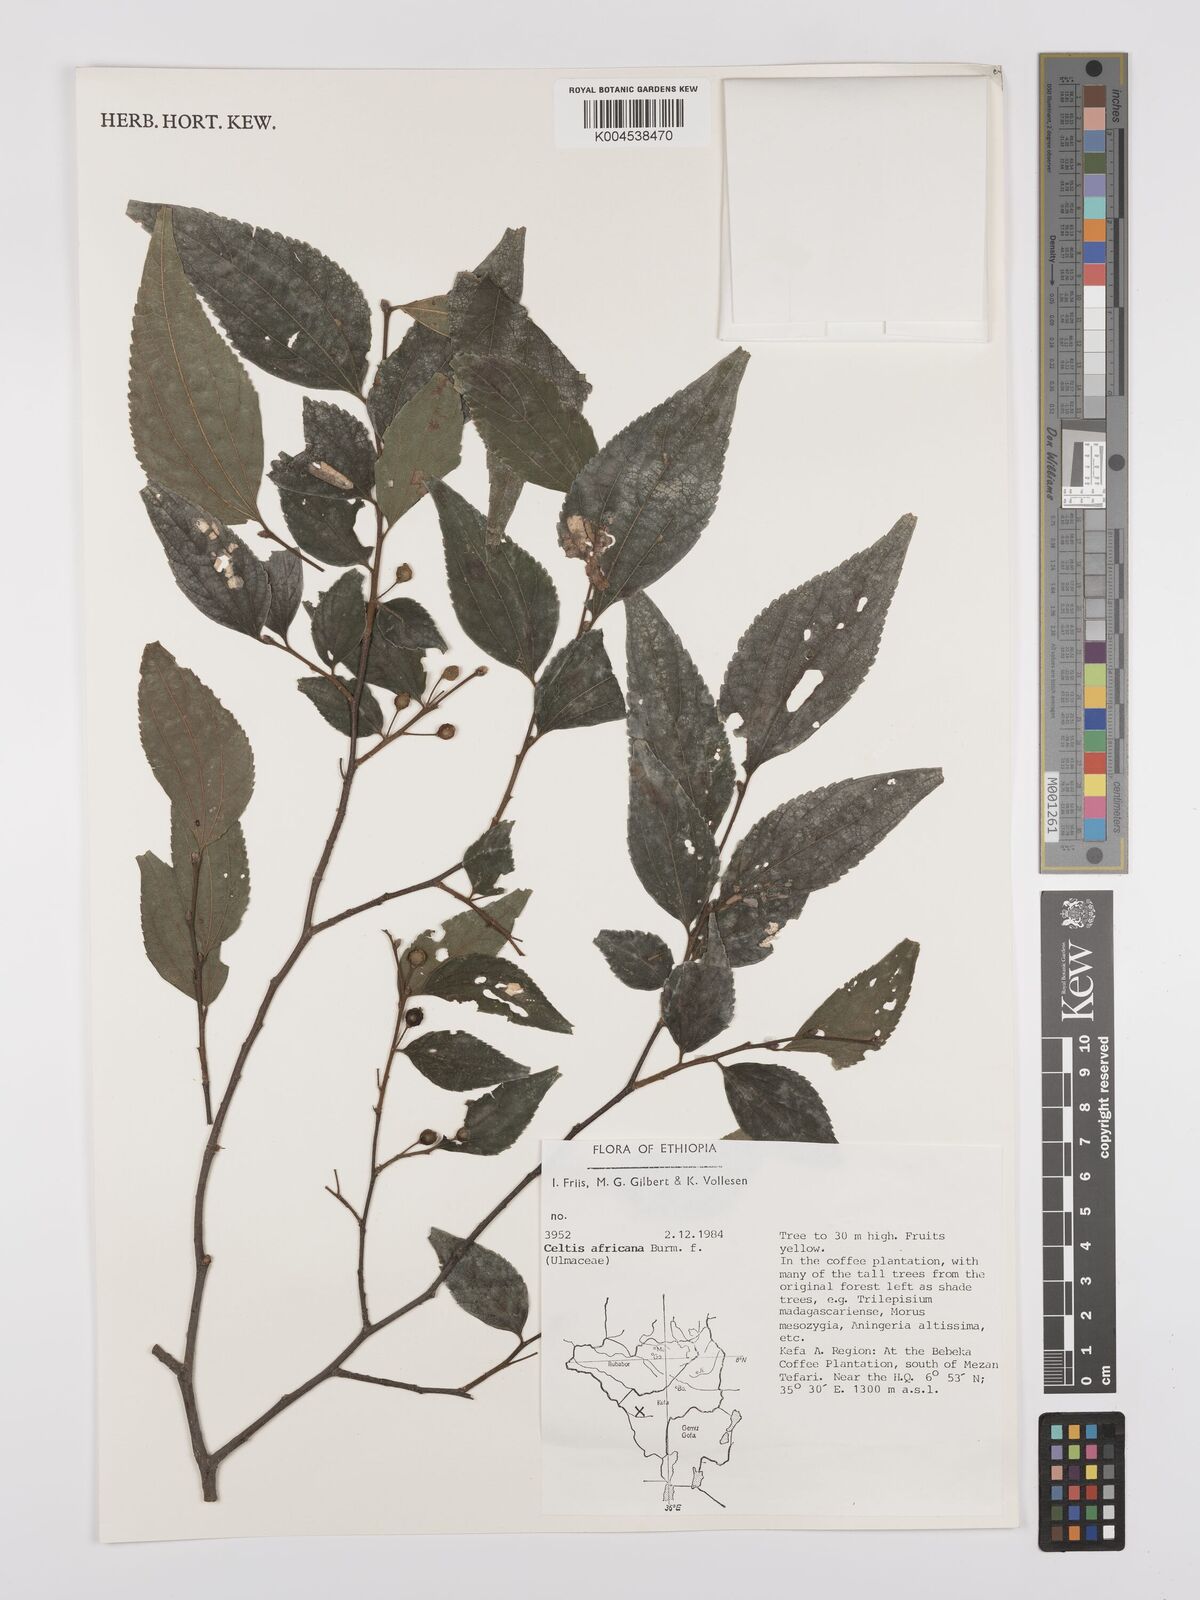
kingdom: Plantae
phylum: Tracheophyta
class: Magnoliopsida
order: Rosales
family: Cannabaceae
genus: Celtis
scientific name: Celtis africana
